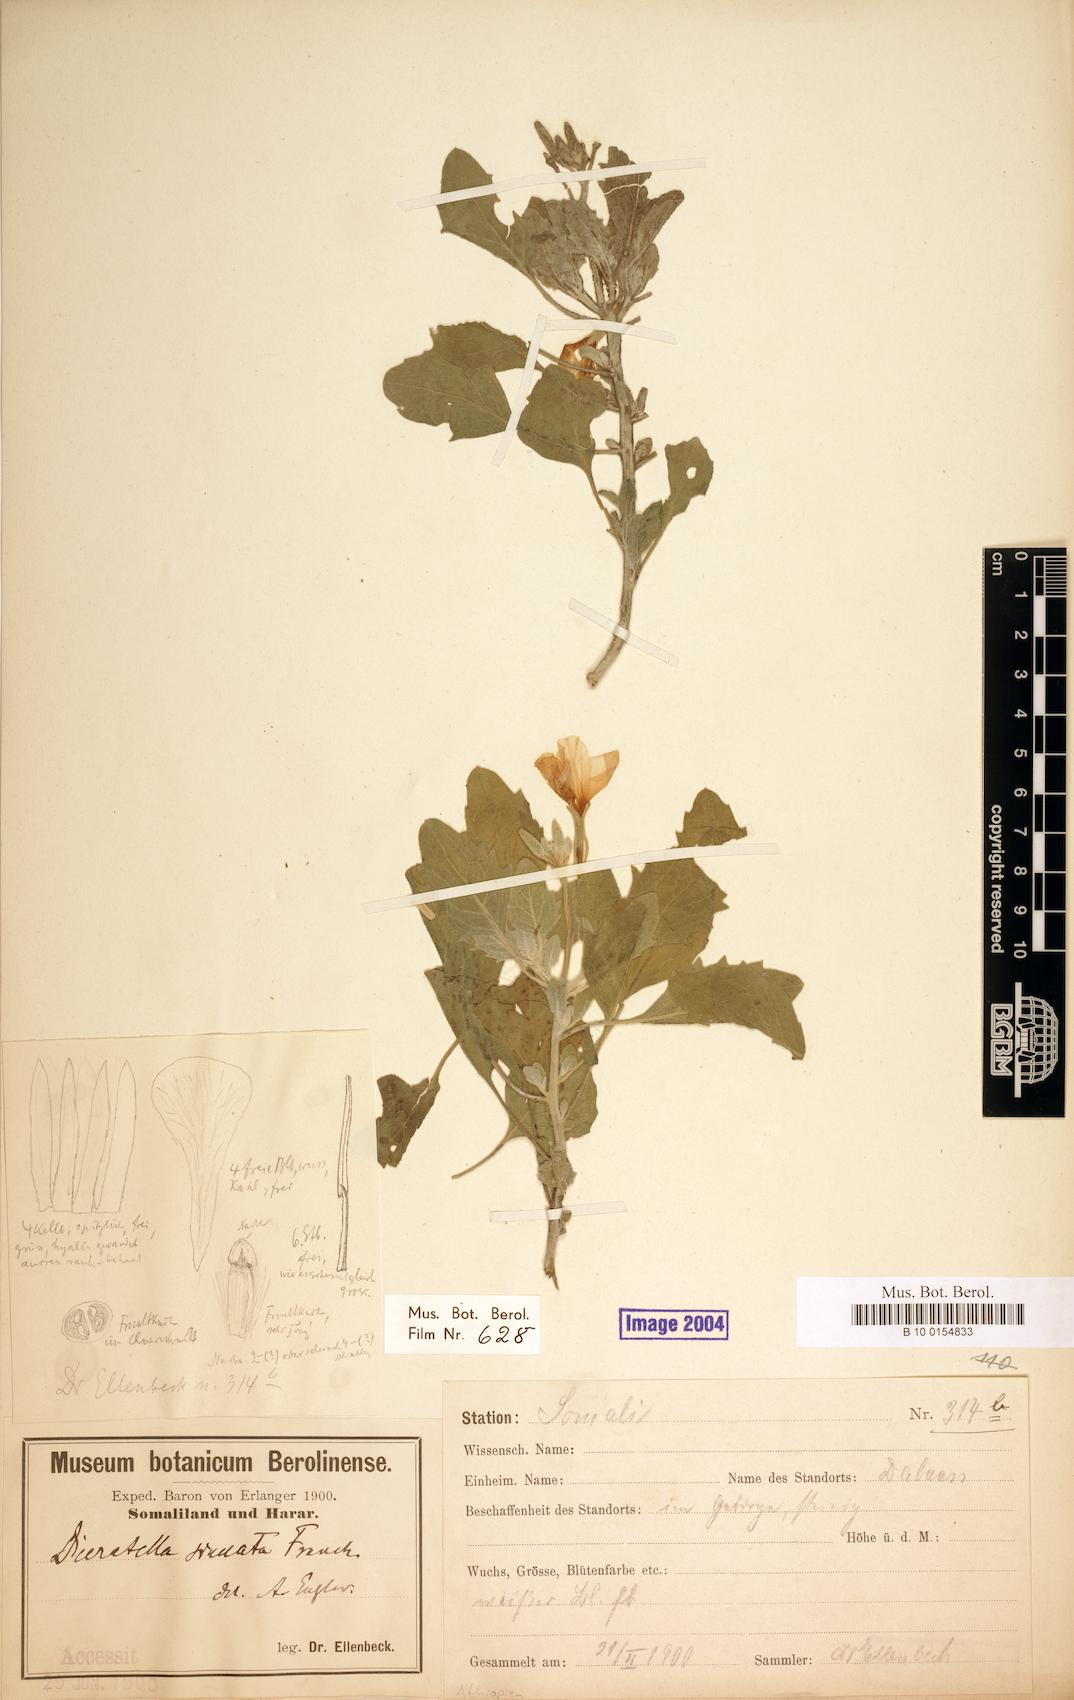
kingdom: Plantae
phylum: Tracheophyta
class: Magnoliopsida
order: Brassicales
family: Brassicaceae
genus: Diceratella
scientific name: Diceratella incana
